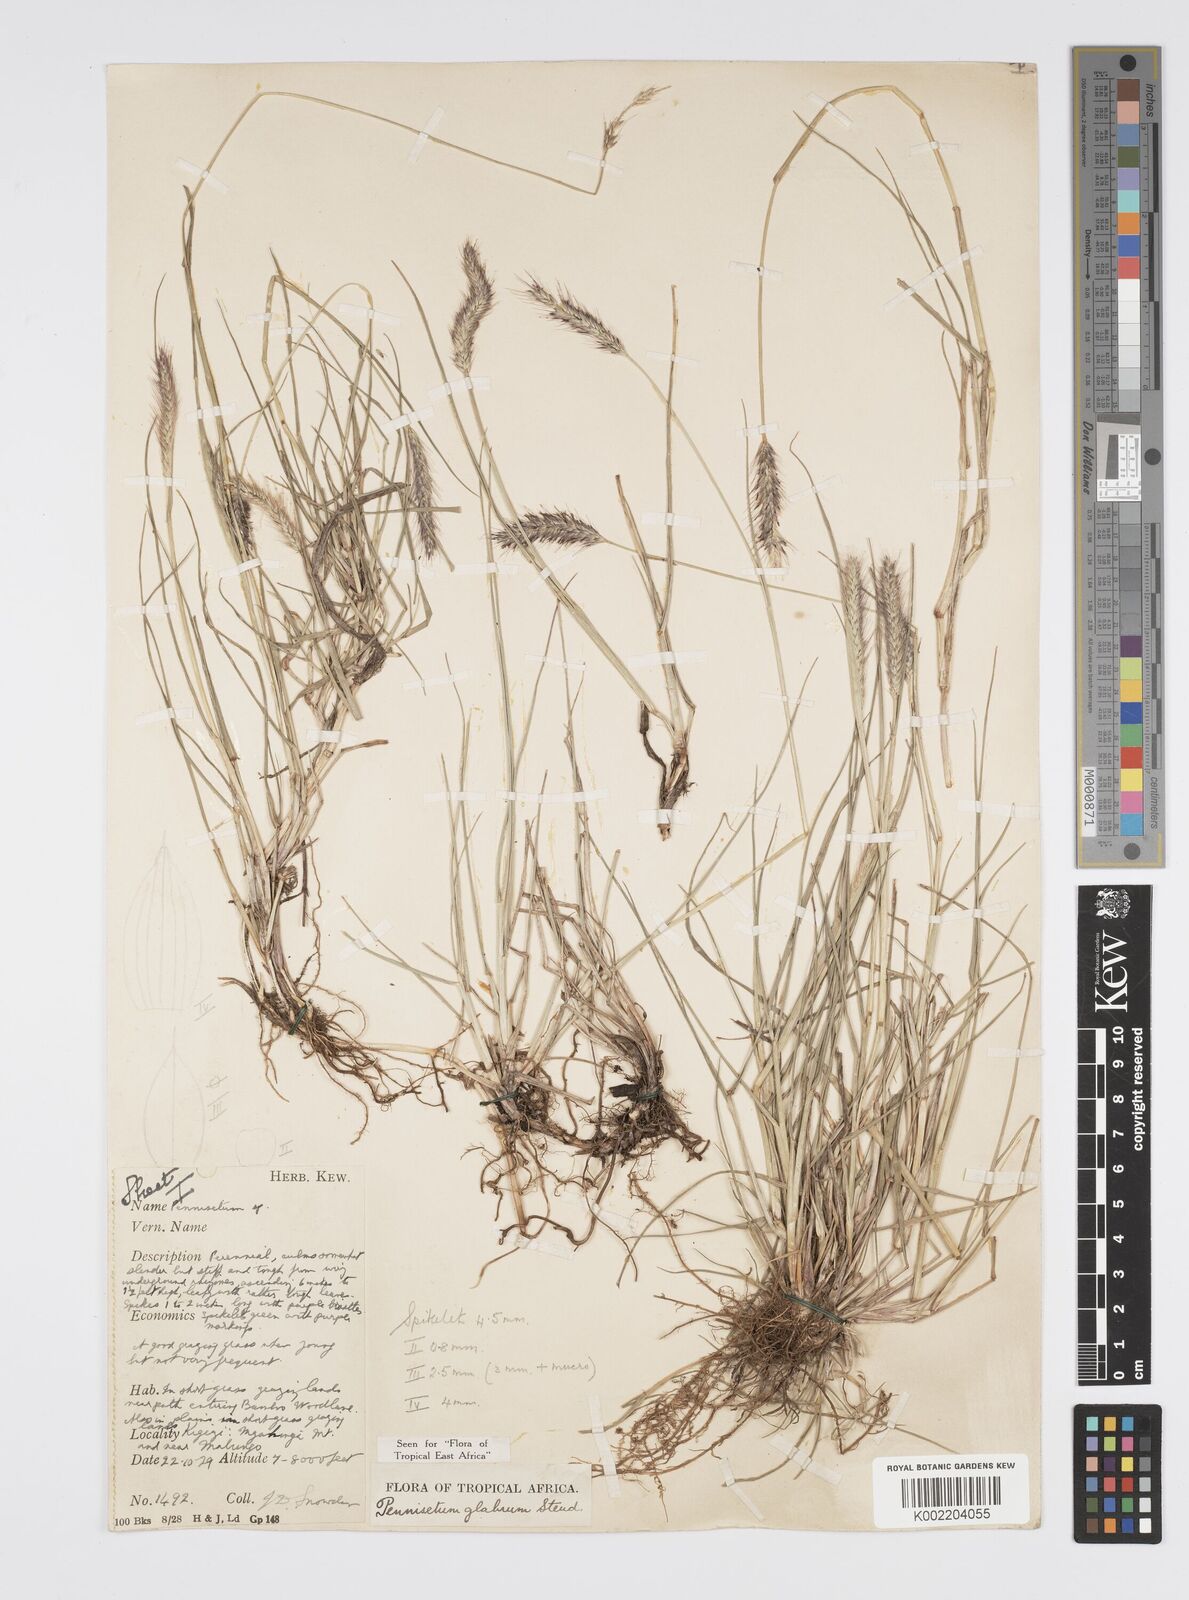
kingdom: Plantae
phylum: Tracheophyta
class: Liliopsida
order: Poales
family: Poaceae
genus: Cenchrus
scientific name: Cenchrus geniculatus
